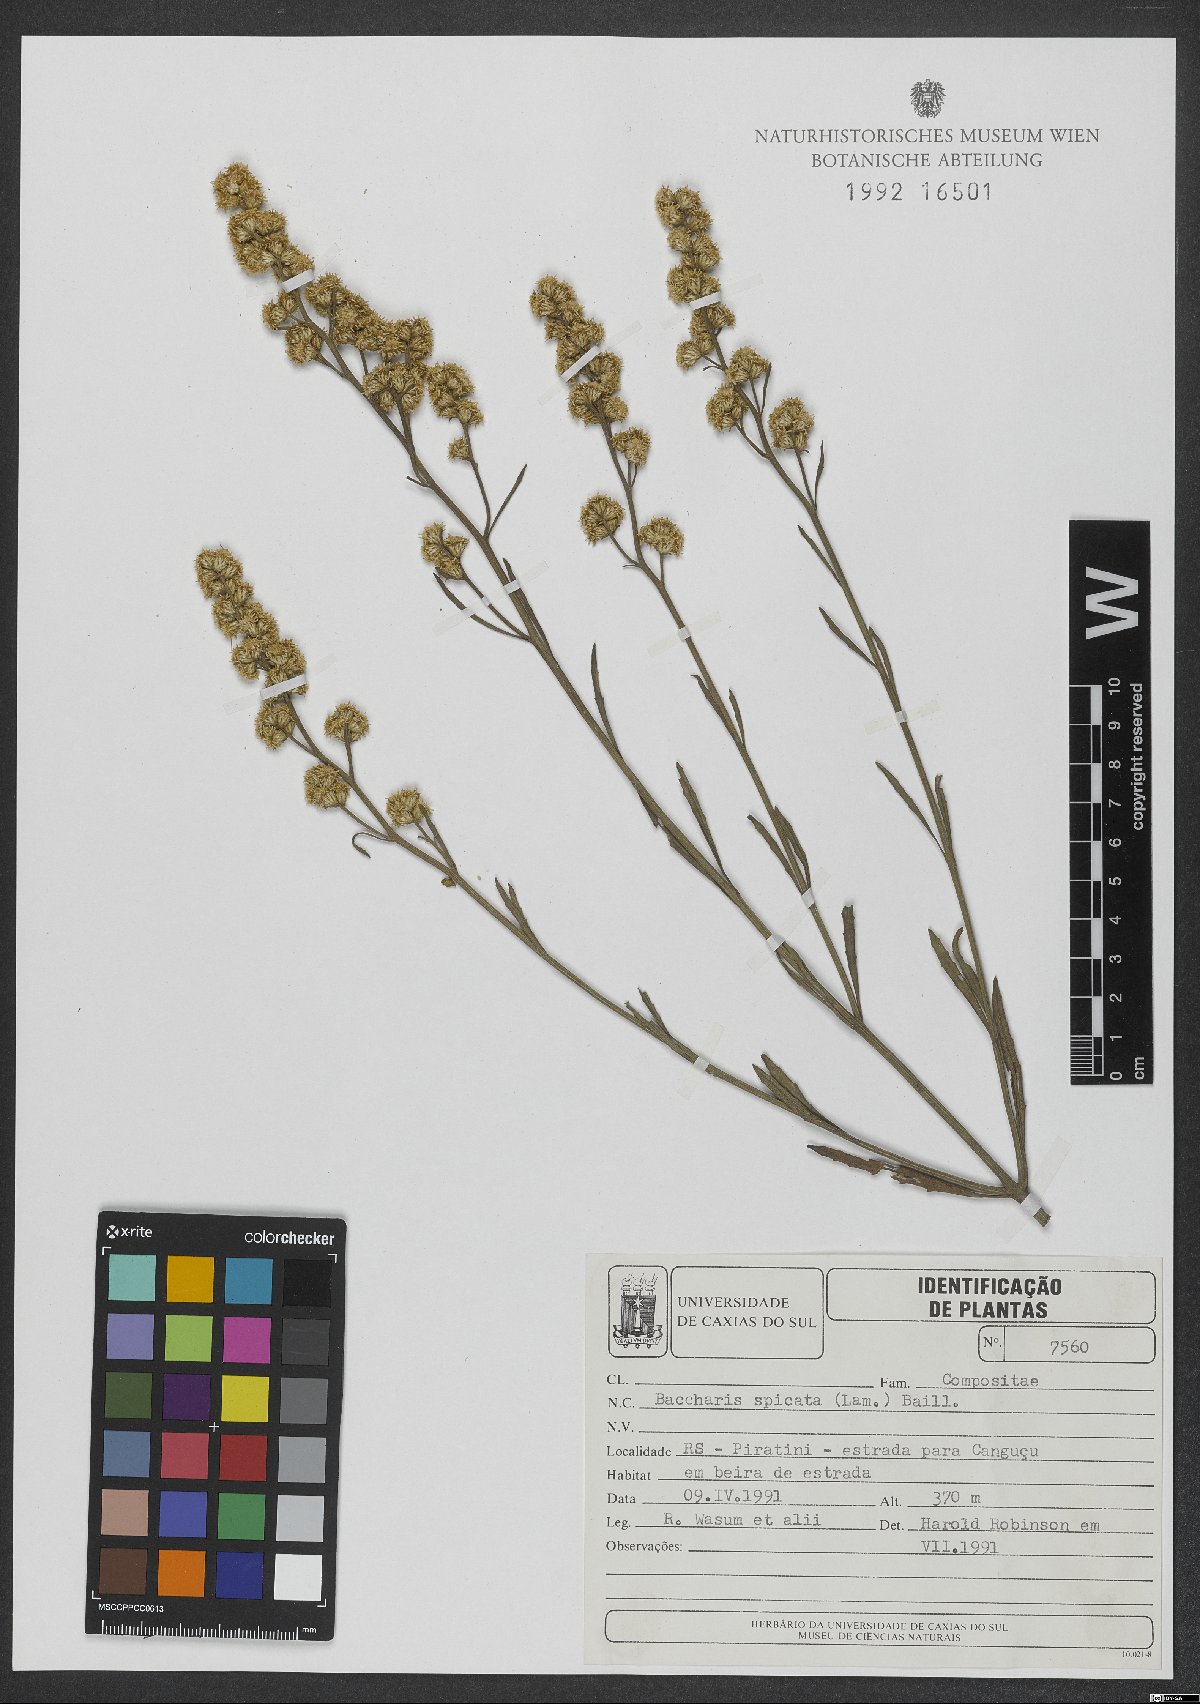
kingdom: Plantae
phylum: Tracheophyta
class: Magnoliopsida
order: Asterales
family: Asteraceae
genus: Baccharis
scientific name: Baccharis spicata
